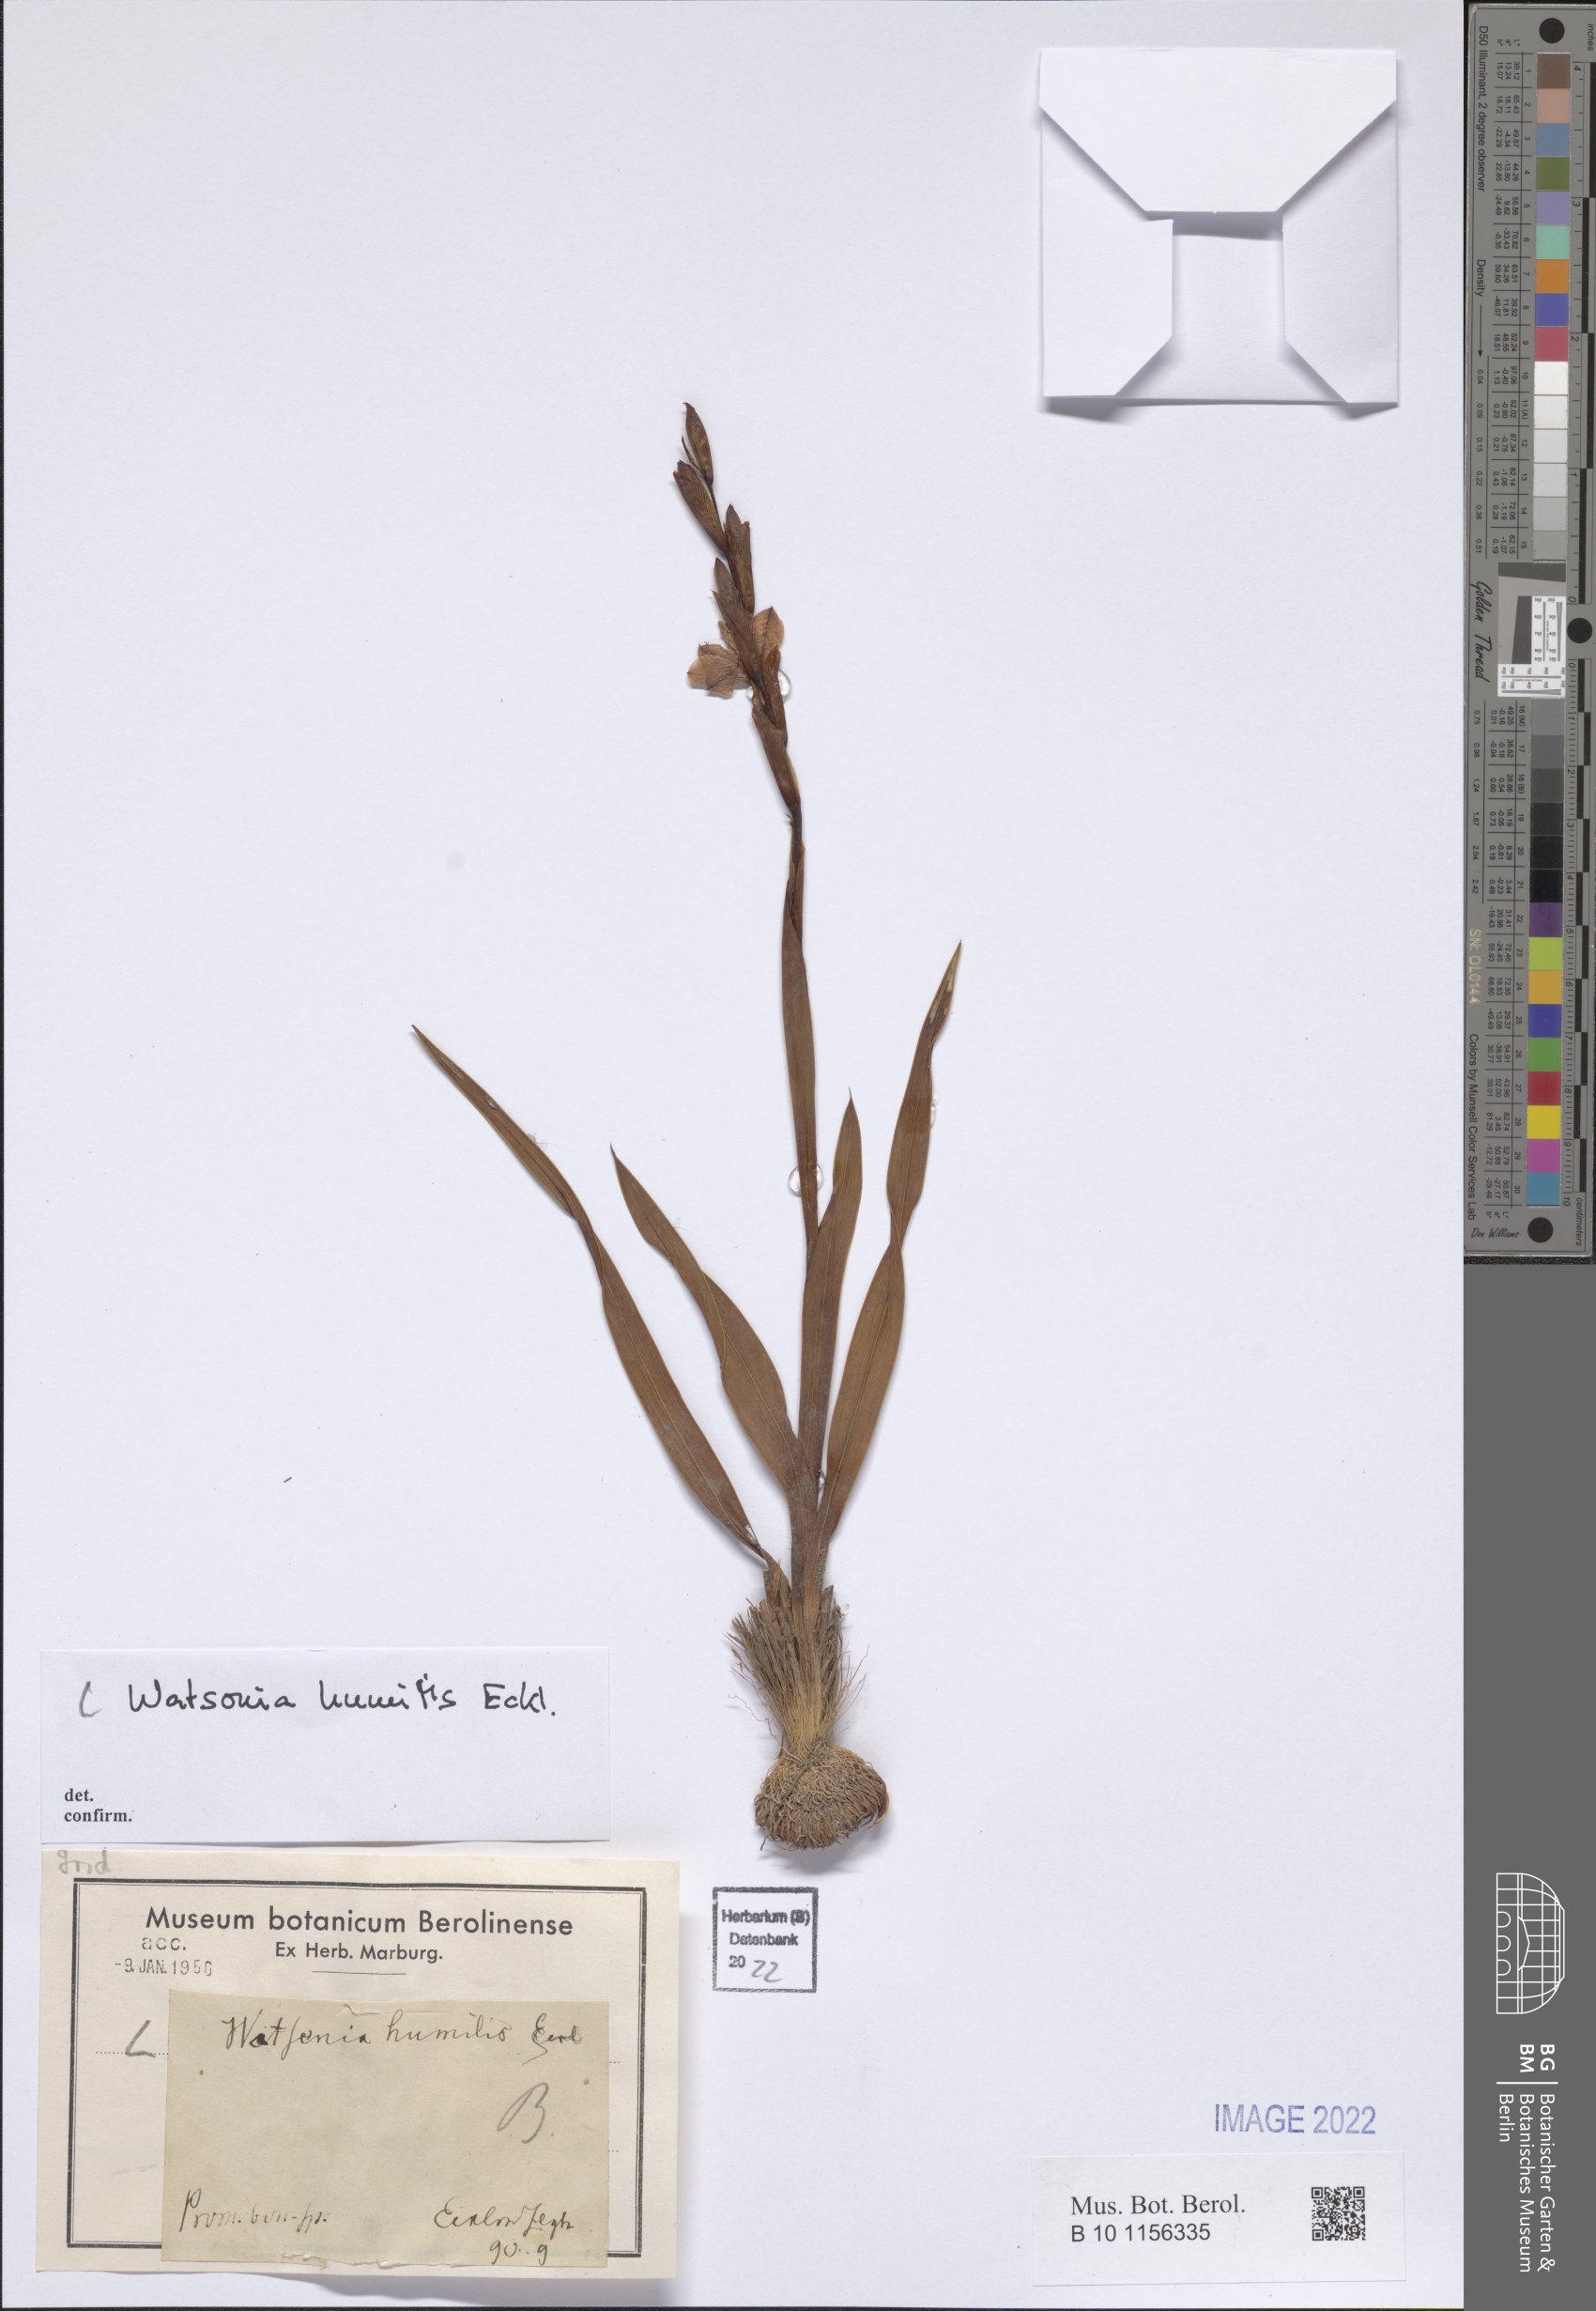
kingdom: Plantae
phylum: Tracheophyta
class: Liliopsida
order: Asparagales
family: Iridaceae
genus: Watsonia
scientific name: Watsonia humilis
